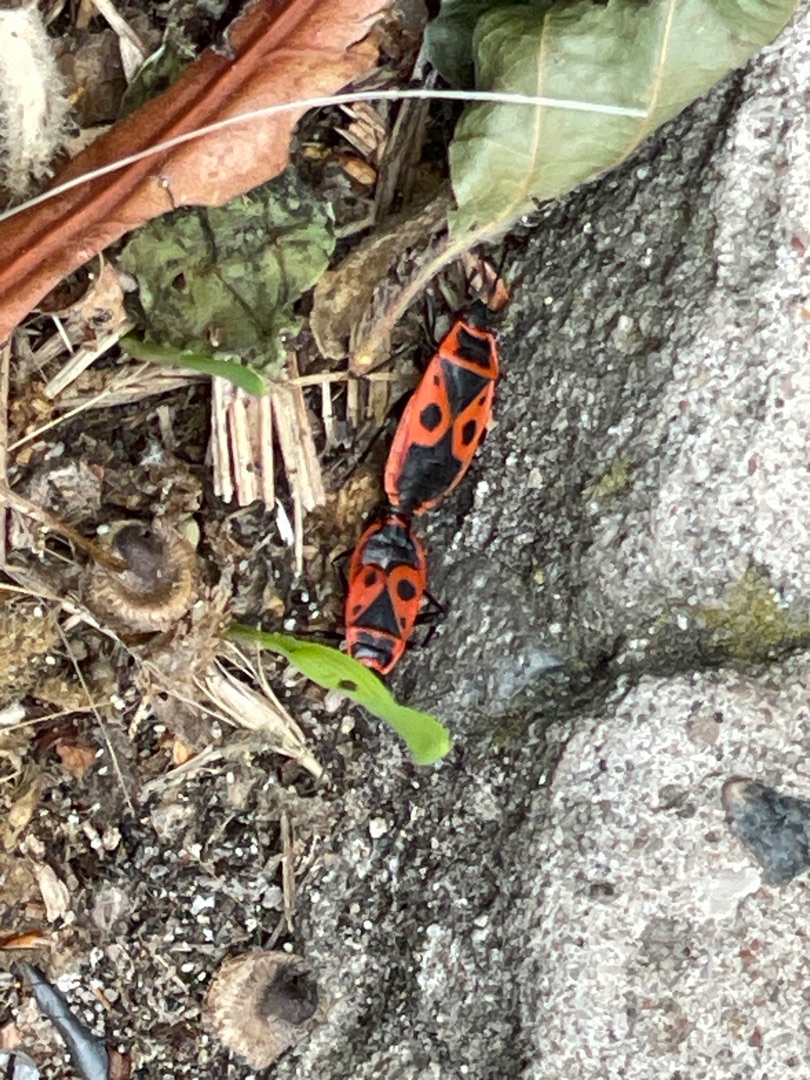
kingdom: Animalia
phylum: Arthropoda
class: Insecta
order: Hemiptera
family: Pyrrhocoridae
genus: Pyrrhocoris
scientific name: Pyrrhocoris apterus
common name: Ildtæge
